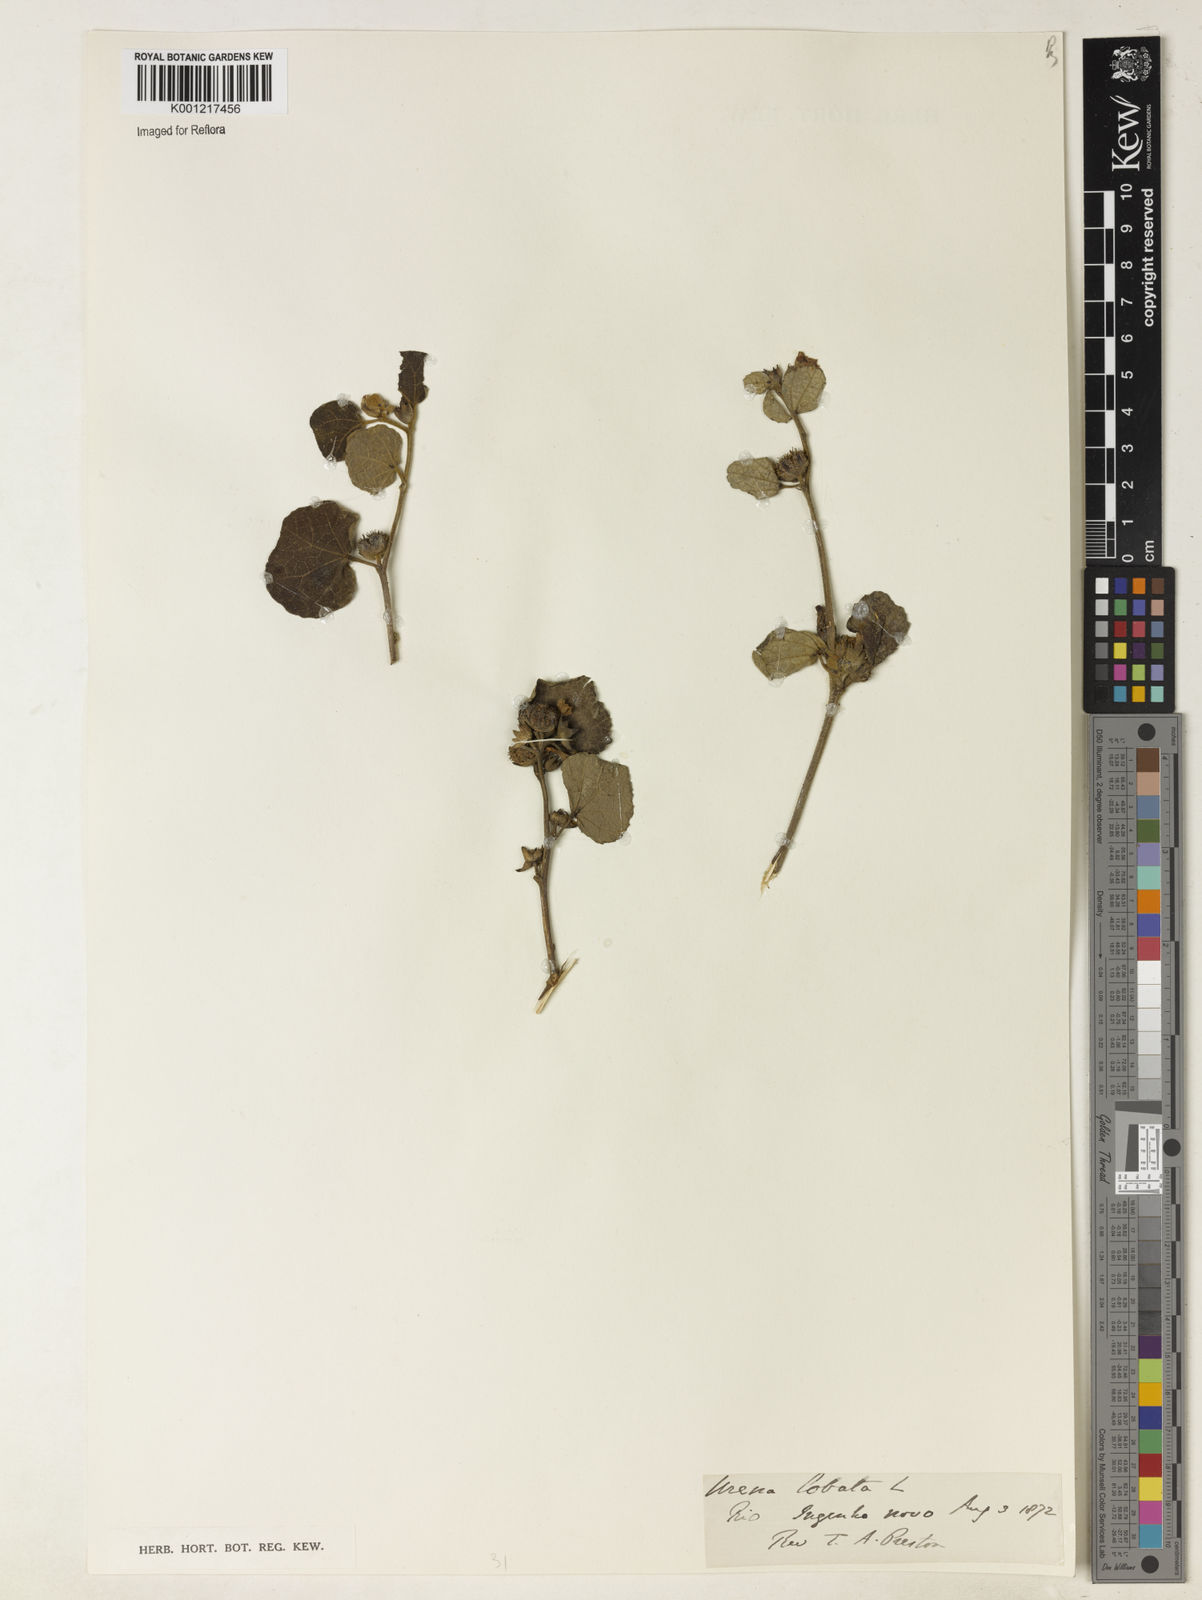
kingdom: Plantae
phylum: Tracheophyta
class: Magnoliopsida
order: Malvales
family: Malvaceae
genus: Urena
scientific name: Urena lobata
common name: Caesarweed
